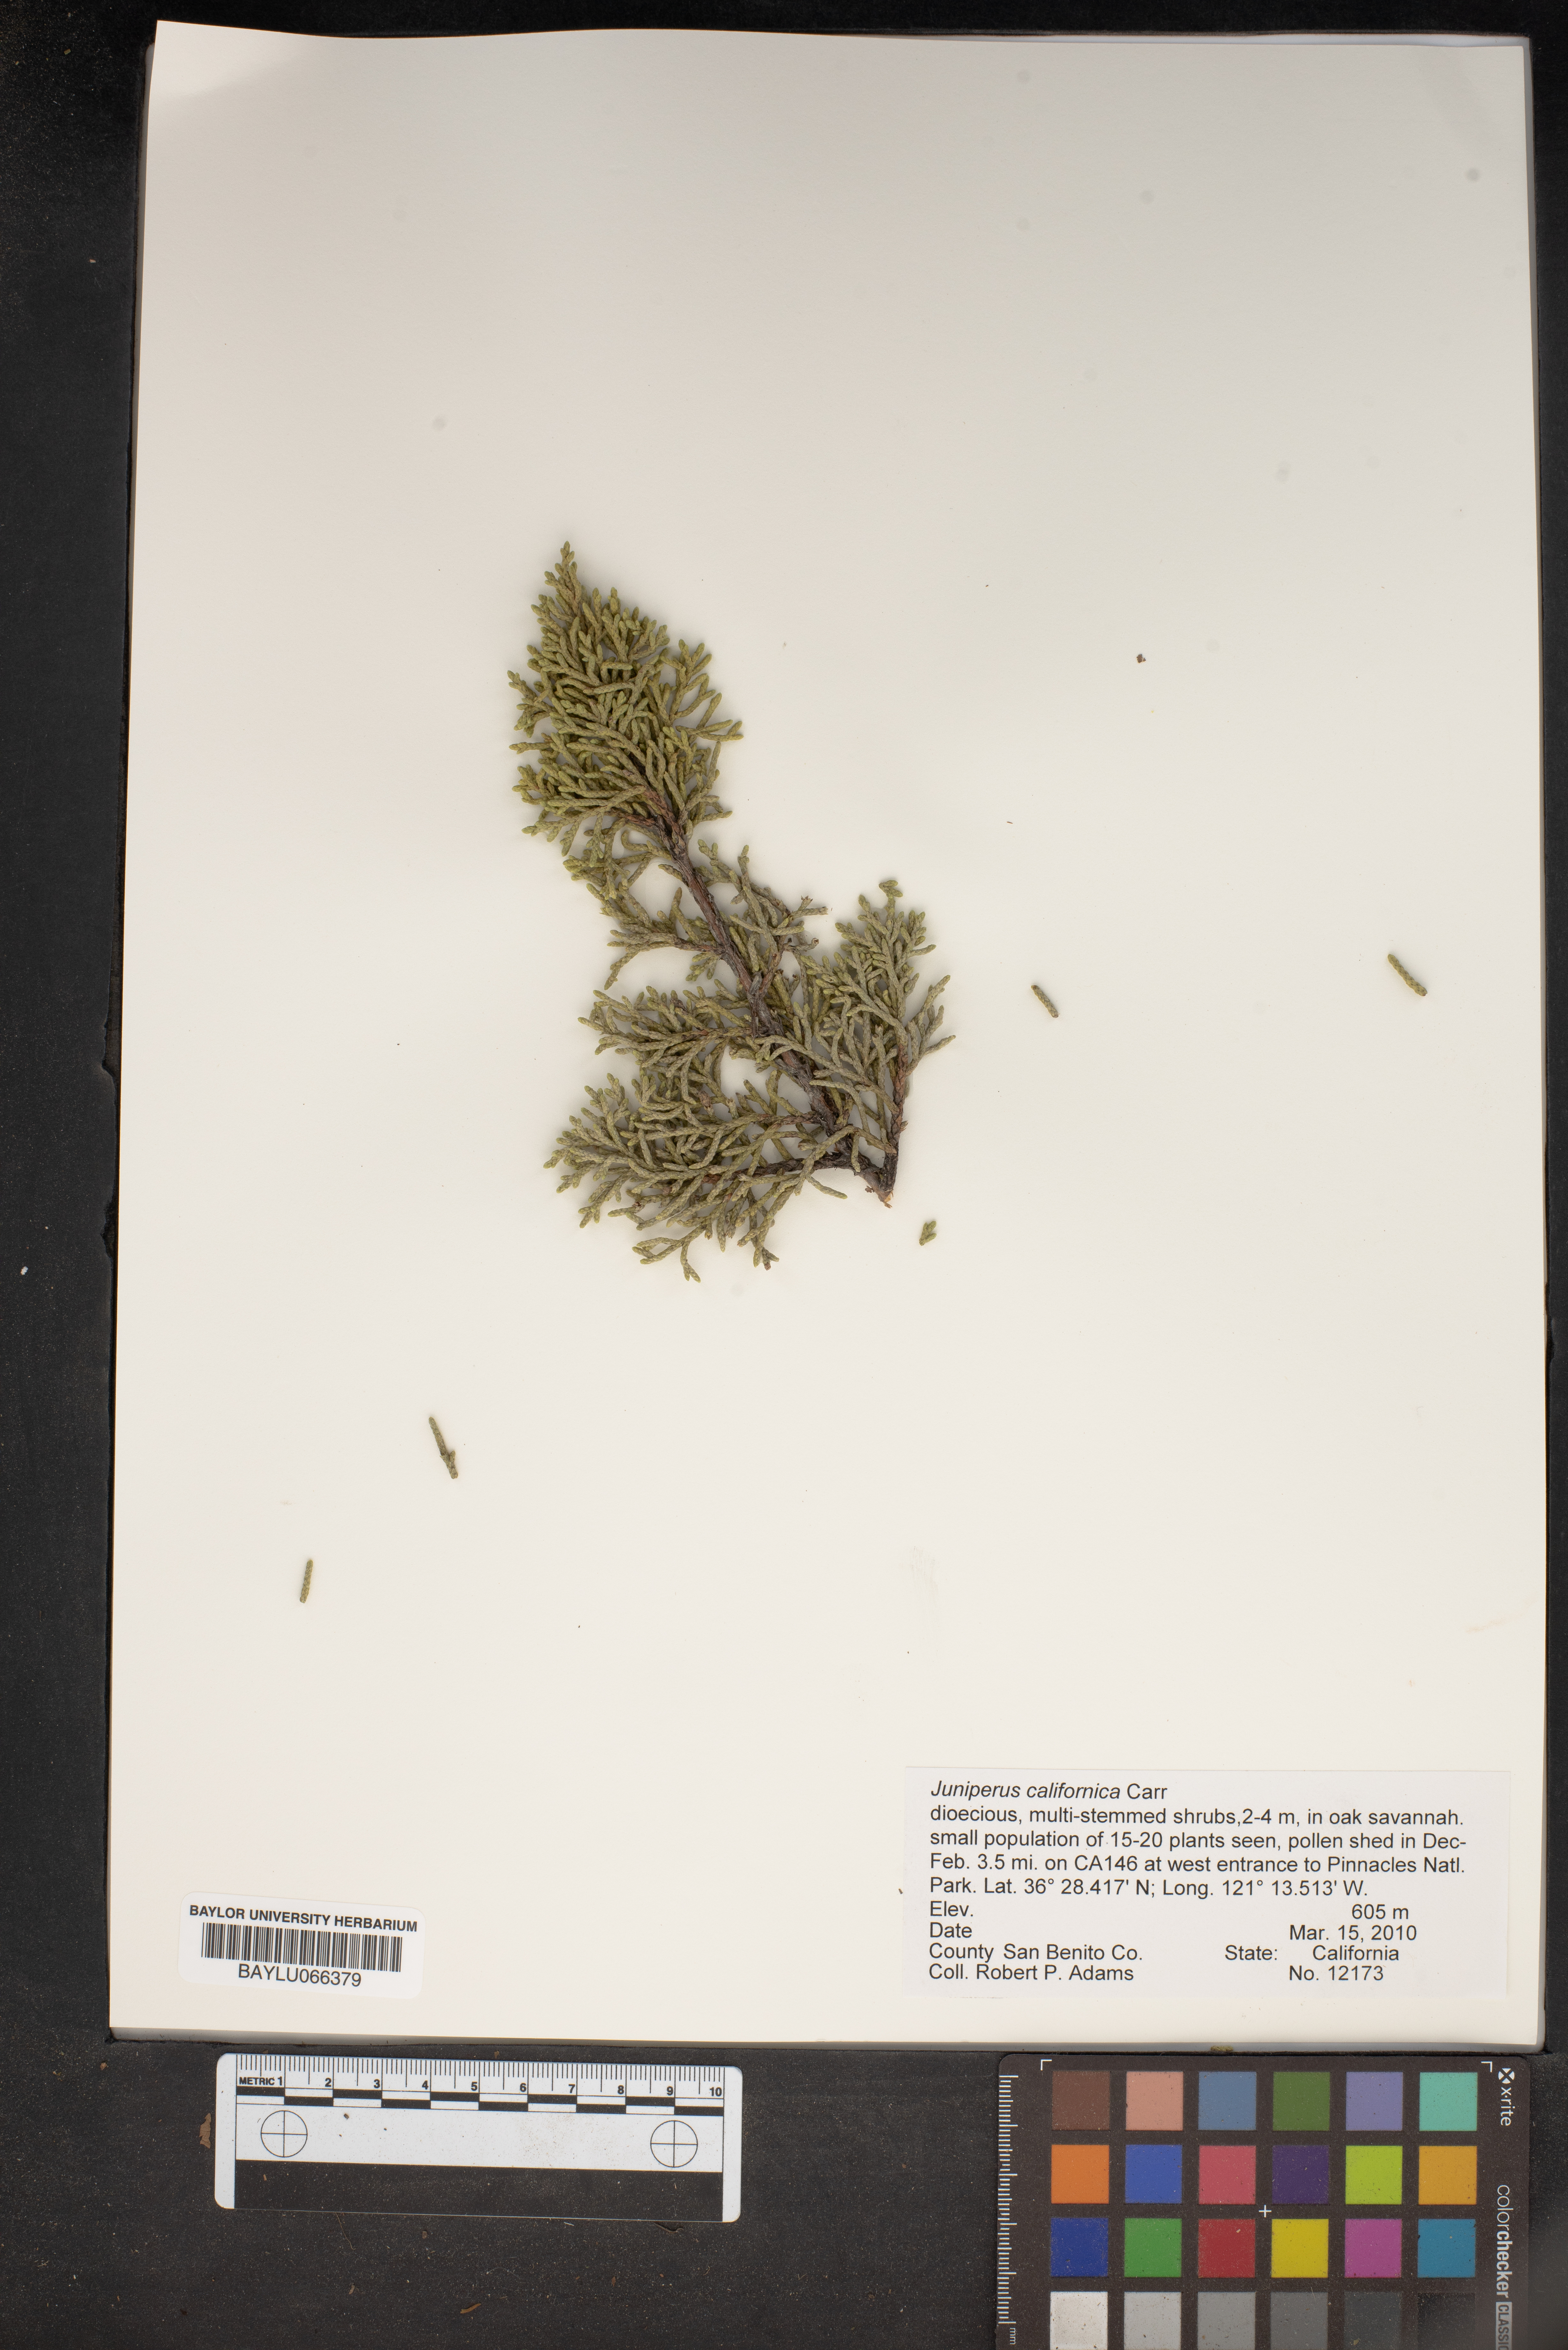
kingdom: Plantae
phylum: Tracheophyta
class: Pinopsida
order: Pinales
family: Cupressaceae
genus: Juniperus
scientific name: Juniperus californica
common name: California juniper
